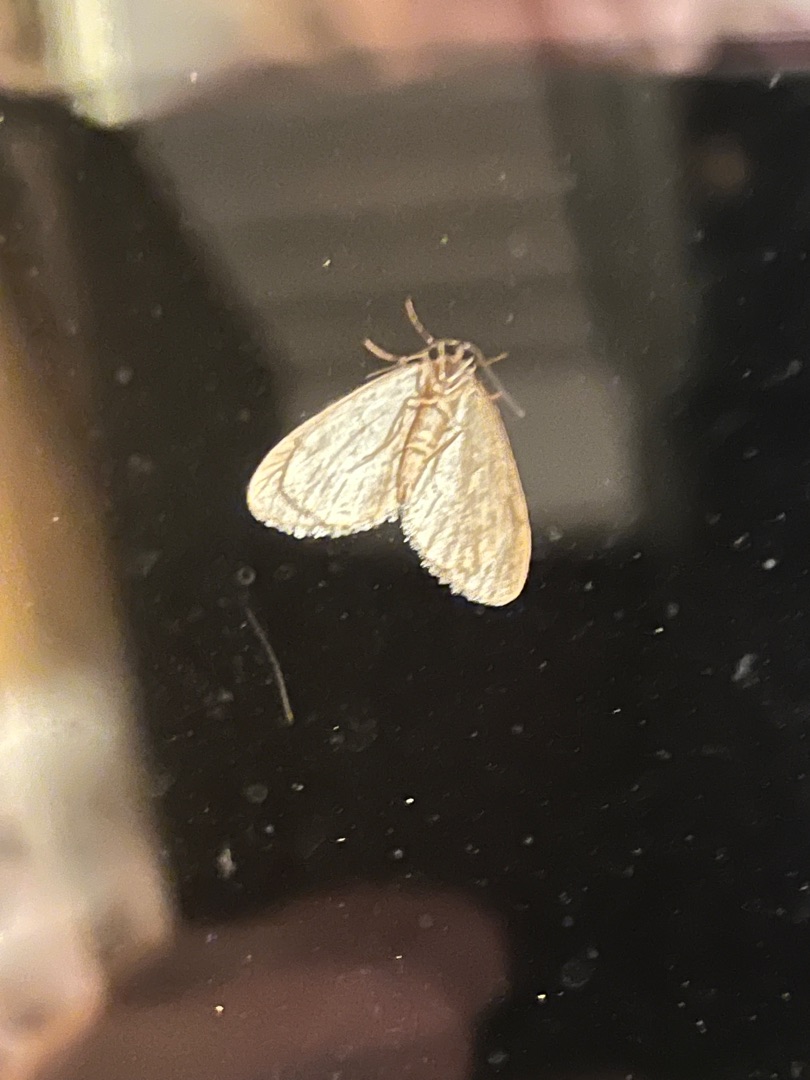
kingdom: Animalia
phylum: Arthropoda
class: Insecta
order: Lepidoptera
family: Geometridae
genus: Operophtera
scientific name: Operophtera brumata
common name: Lille frostmåler
